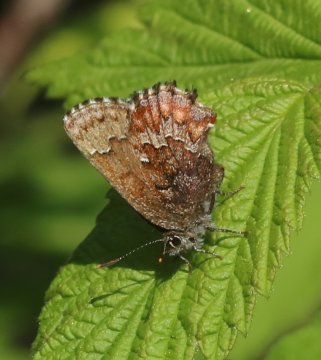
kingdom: Animalia
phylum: Arthropoda
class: Insecta
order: Lepidoptera
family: Lycaenidae
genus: Incisalia
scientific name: Incisalia niphon
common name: Eastern Pine Elfin
